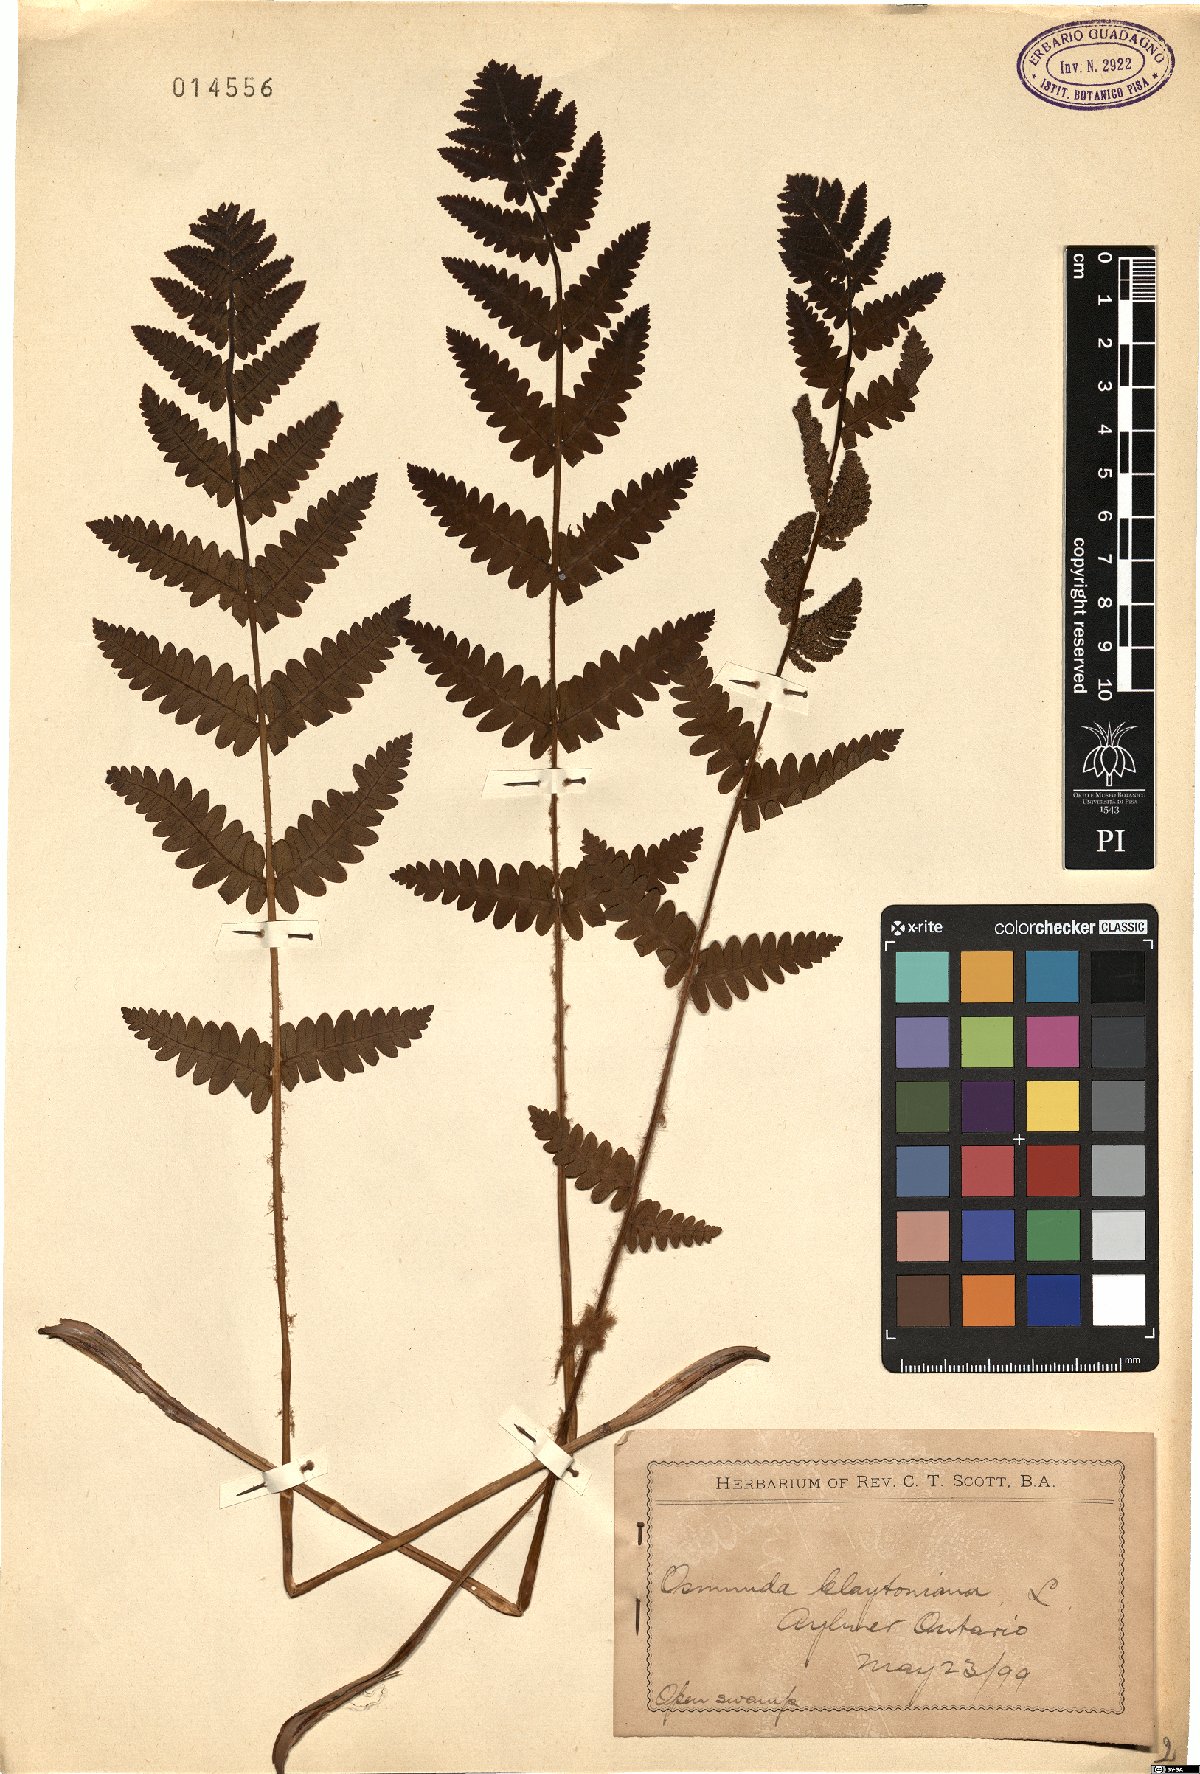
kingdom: Plantae
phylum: Tracheophyta
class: Polypodiopsida
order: Osmundales
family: Osmundaceae
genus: Claytosmunda
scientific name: Claytosmunda claytoniana
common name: Clayton's fern
